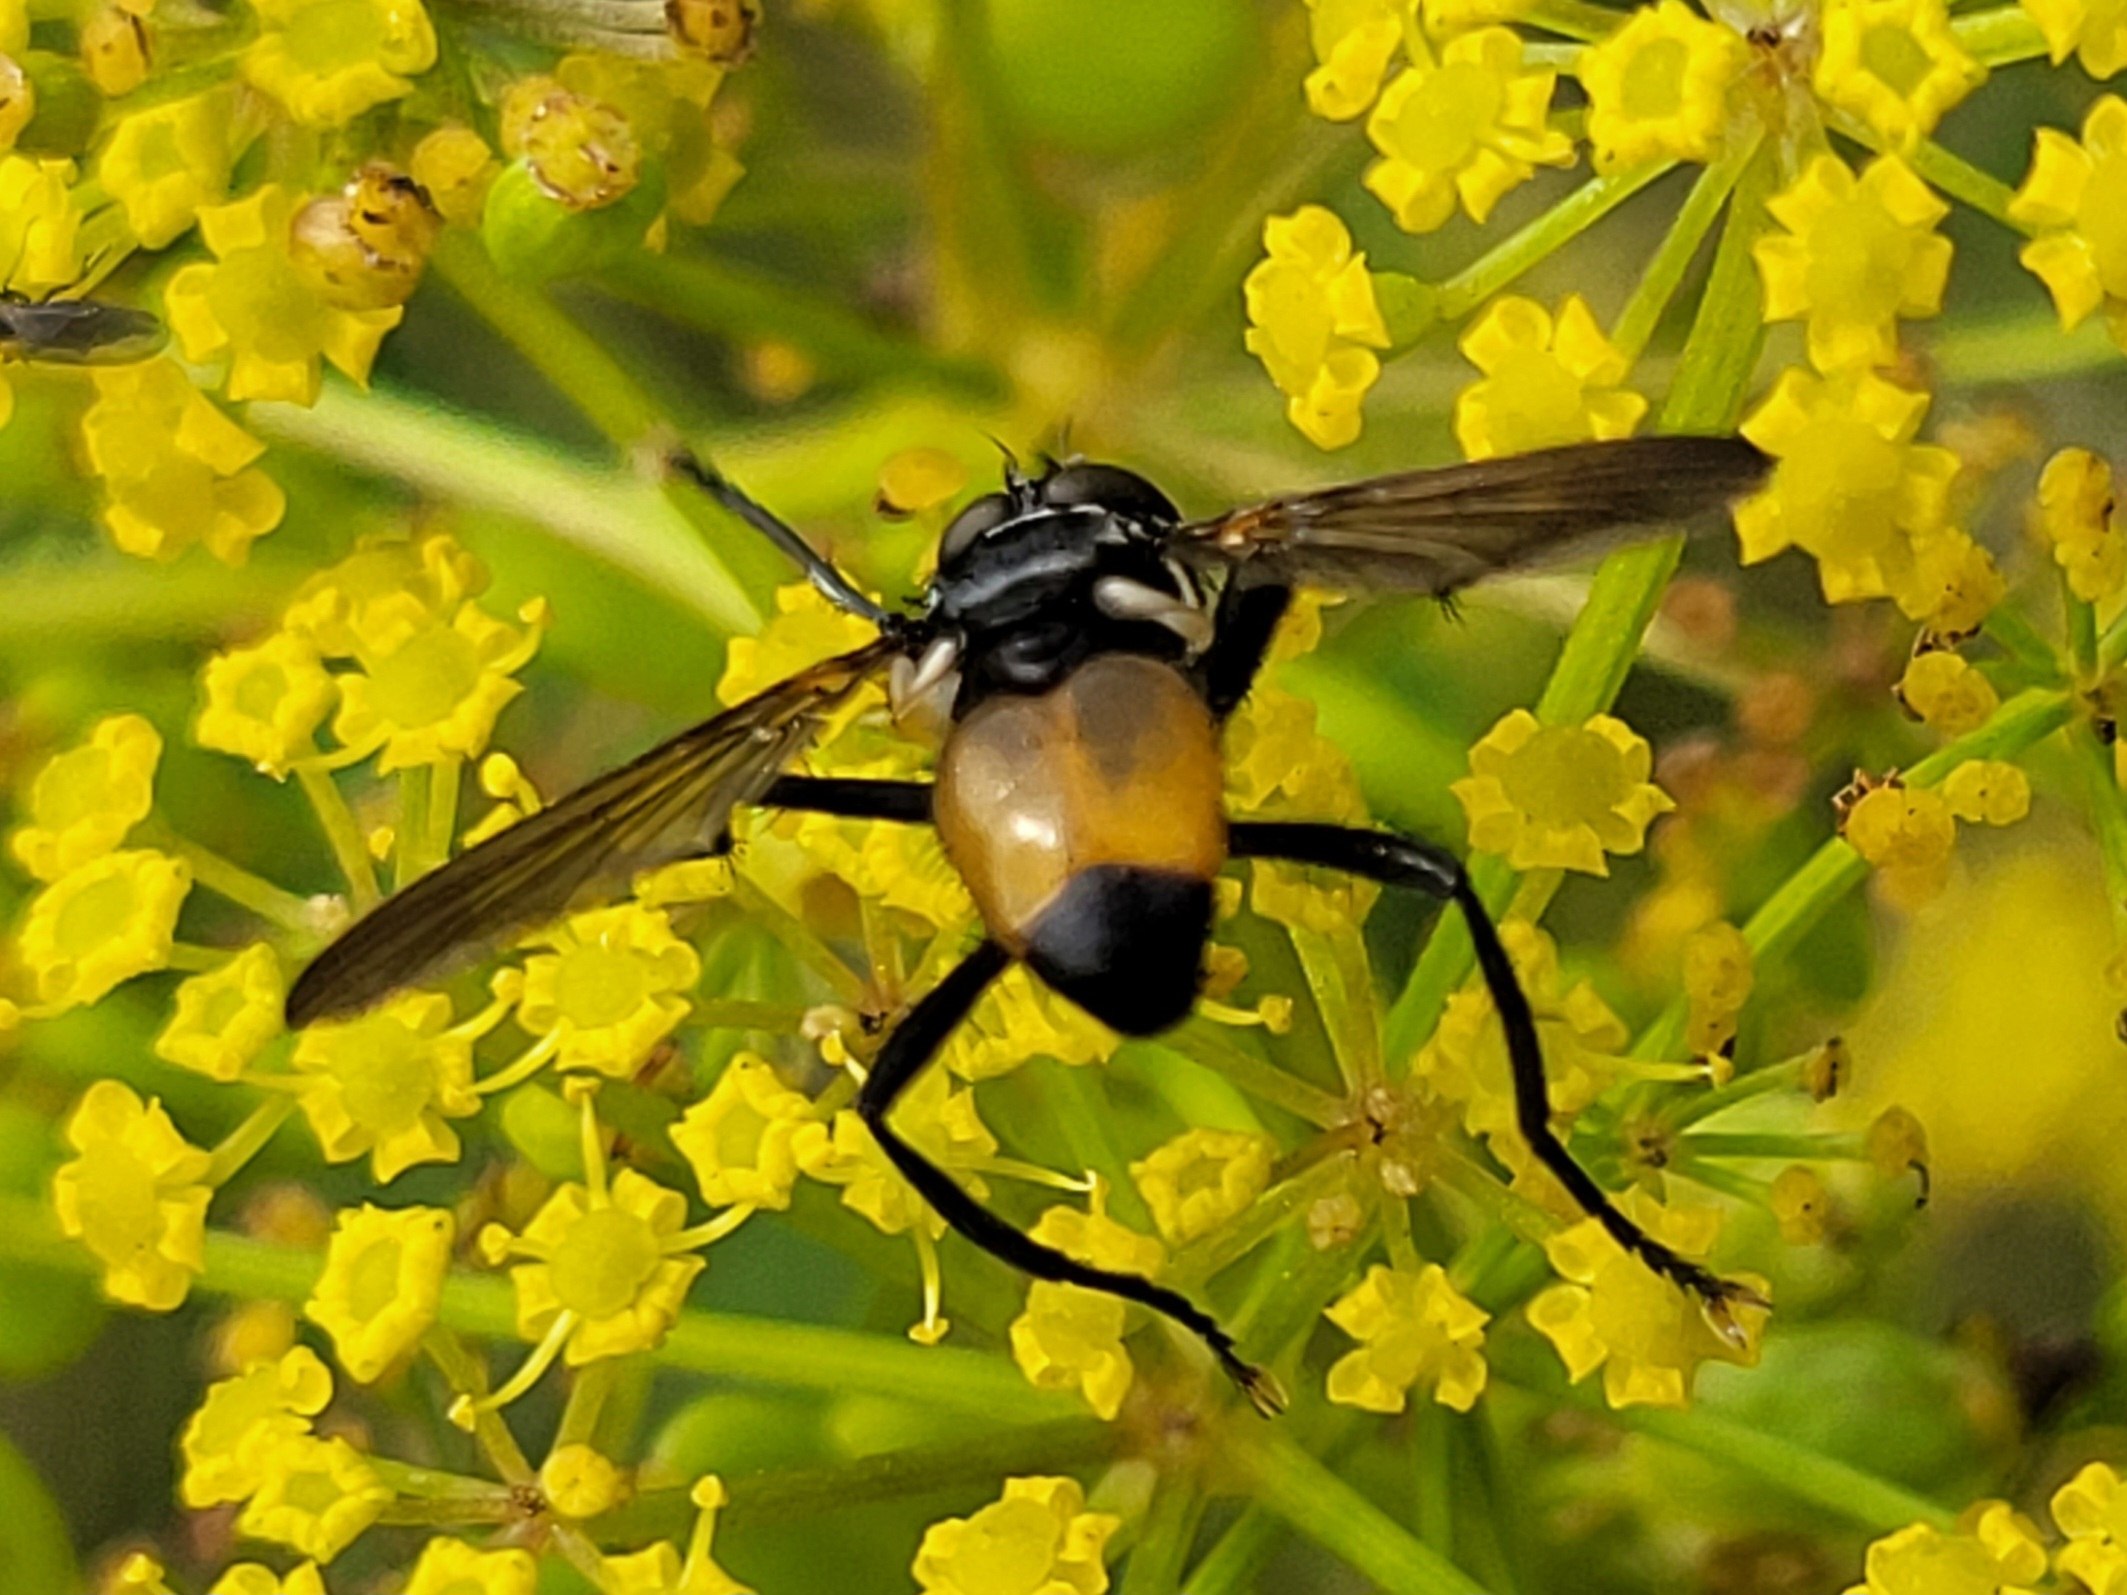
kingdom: Animalia
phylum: Arthropoda
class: Insecta
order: Diptera
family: Tachinidae
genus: Hemyda
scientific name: Hemyda obscuripennis
